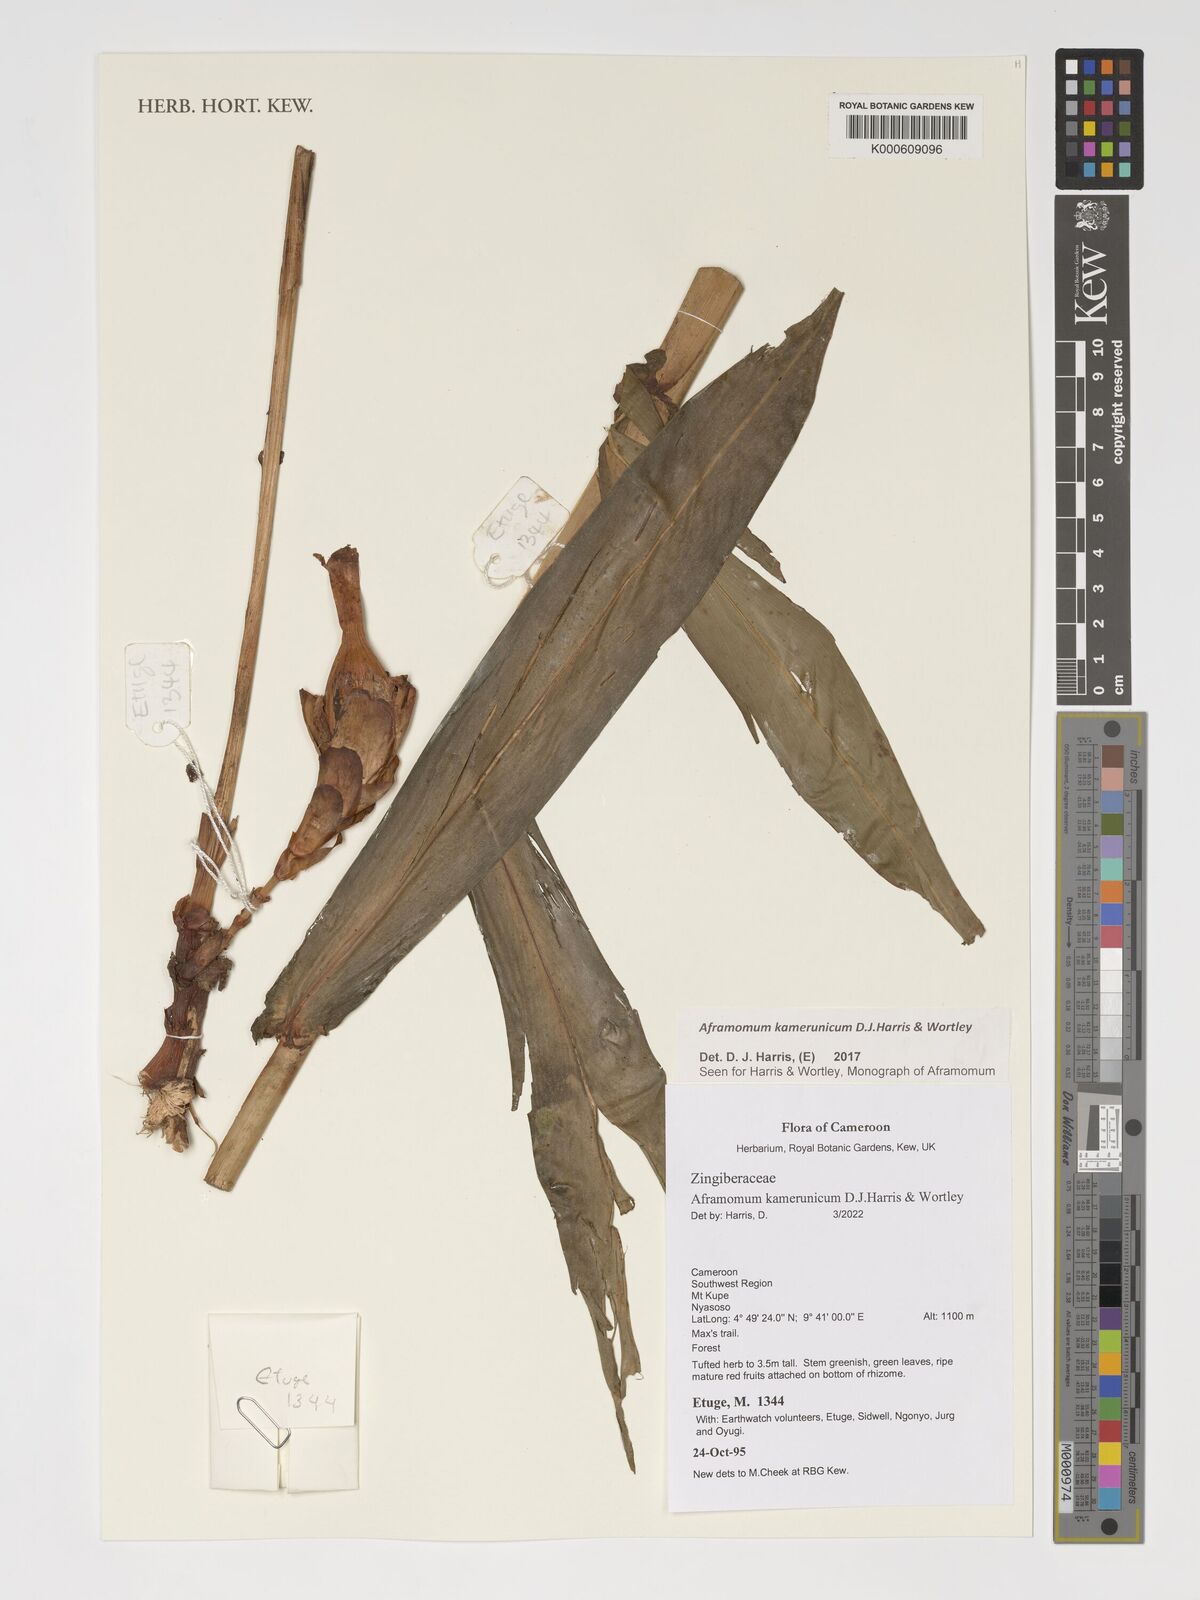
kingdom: Plantae
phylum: Tracheophyta
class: Liliopsida
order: Zingiberales
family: Zingiberaceae
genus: Aframomum
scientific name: Aframomum kamerunicum
